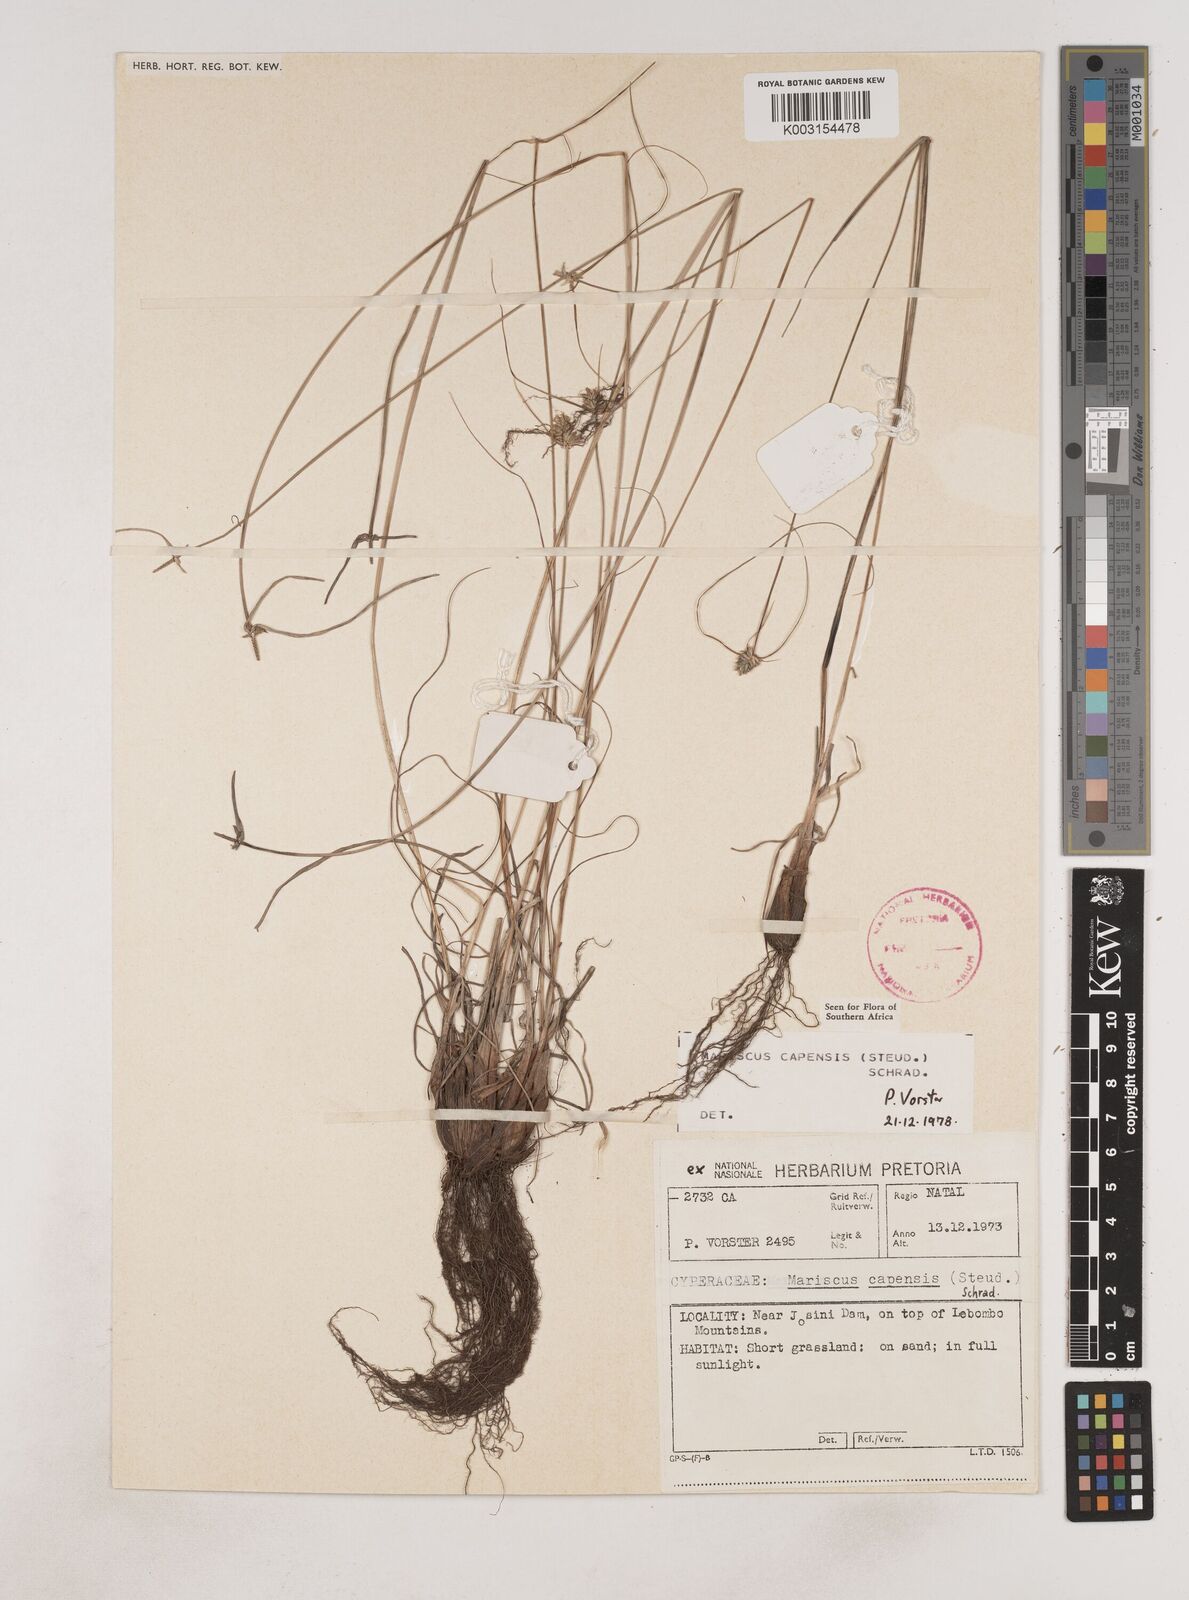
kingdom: Plantae
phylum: Tracheophyta
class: Liliopsida
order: Poales
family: Cyperaceae
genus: Cyperus
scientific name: Cyperus
